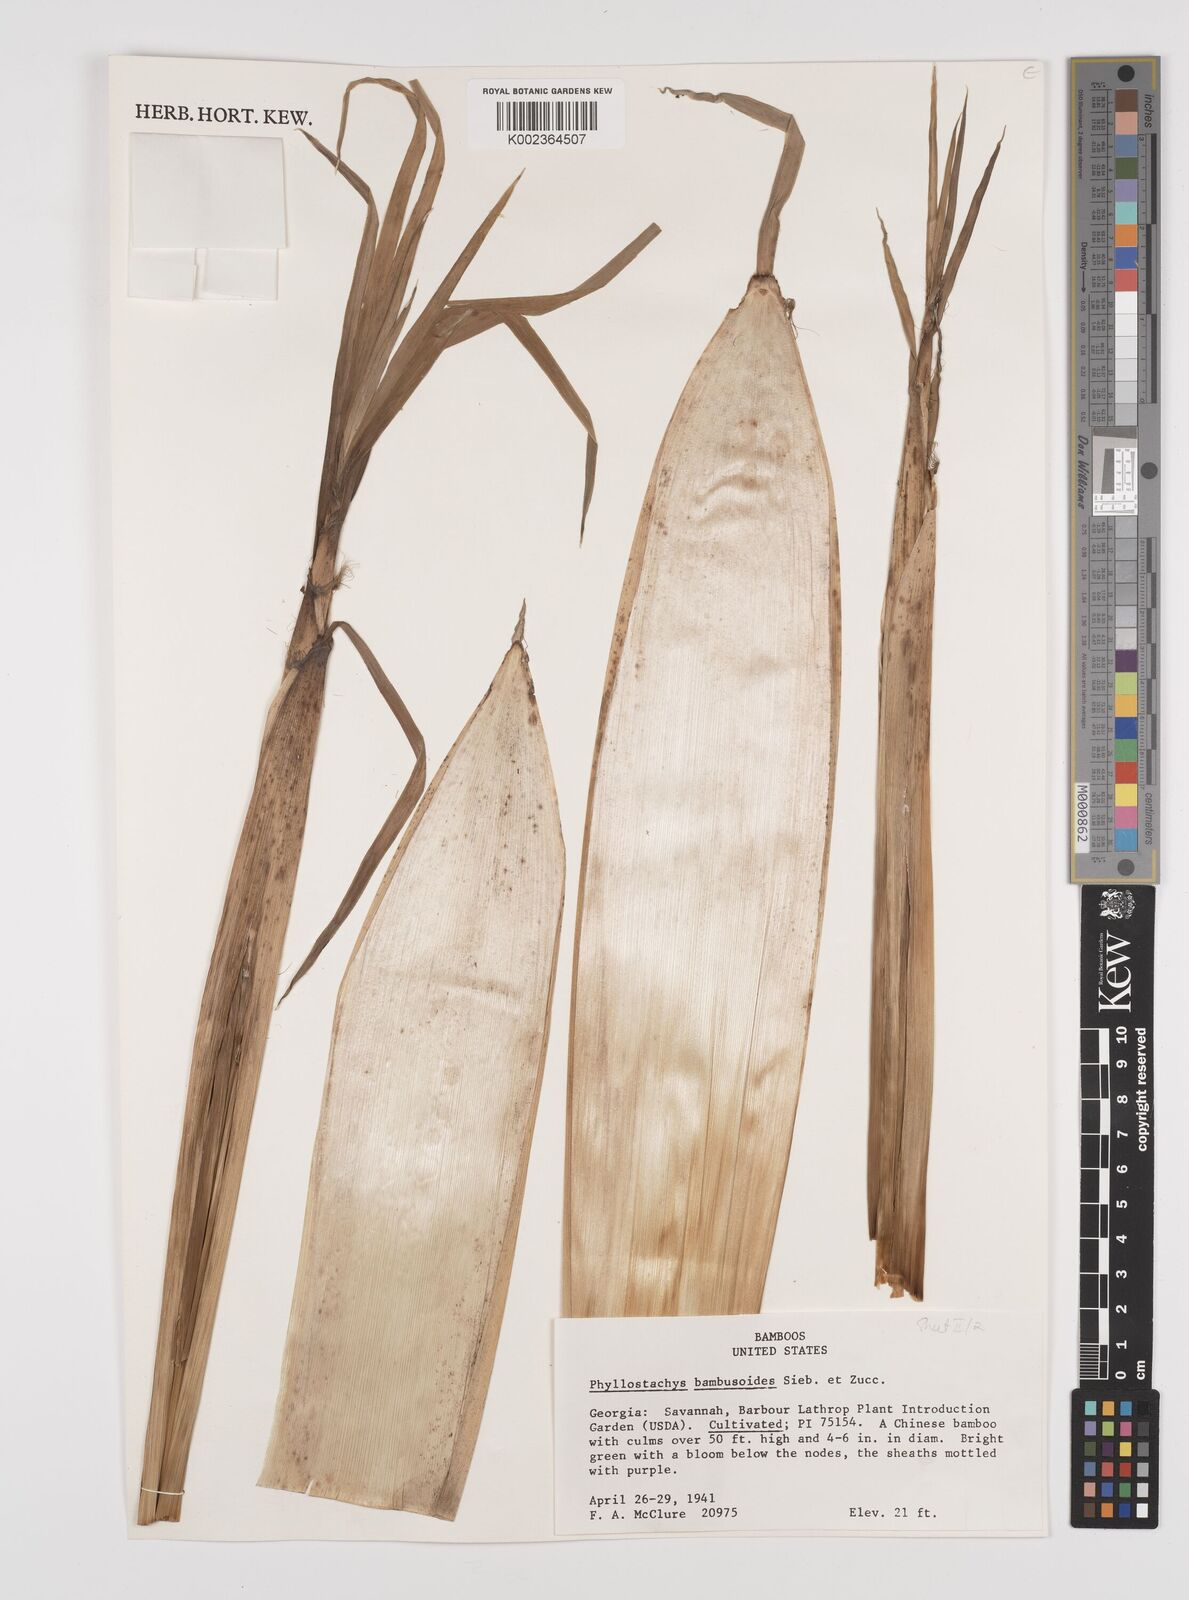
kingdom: Plantae
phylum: Tracheophyta
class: Liliopsida
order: Poales
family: Poaceae
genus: Phyllostachys
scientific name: Phyllostachys reticulata
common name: Bamboo
